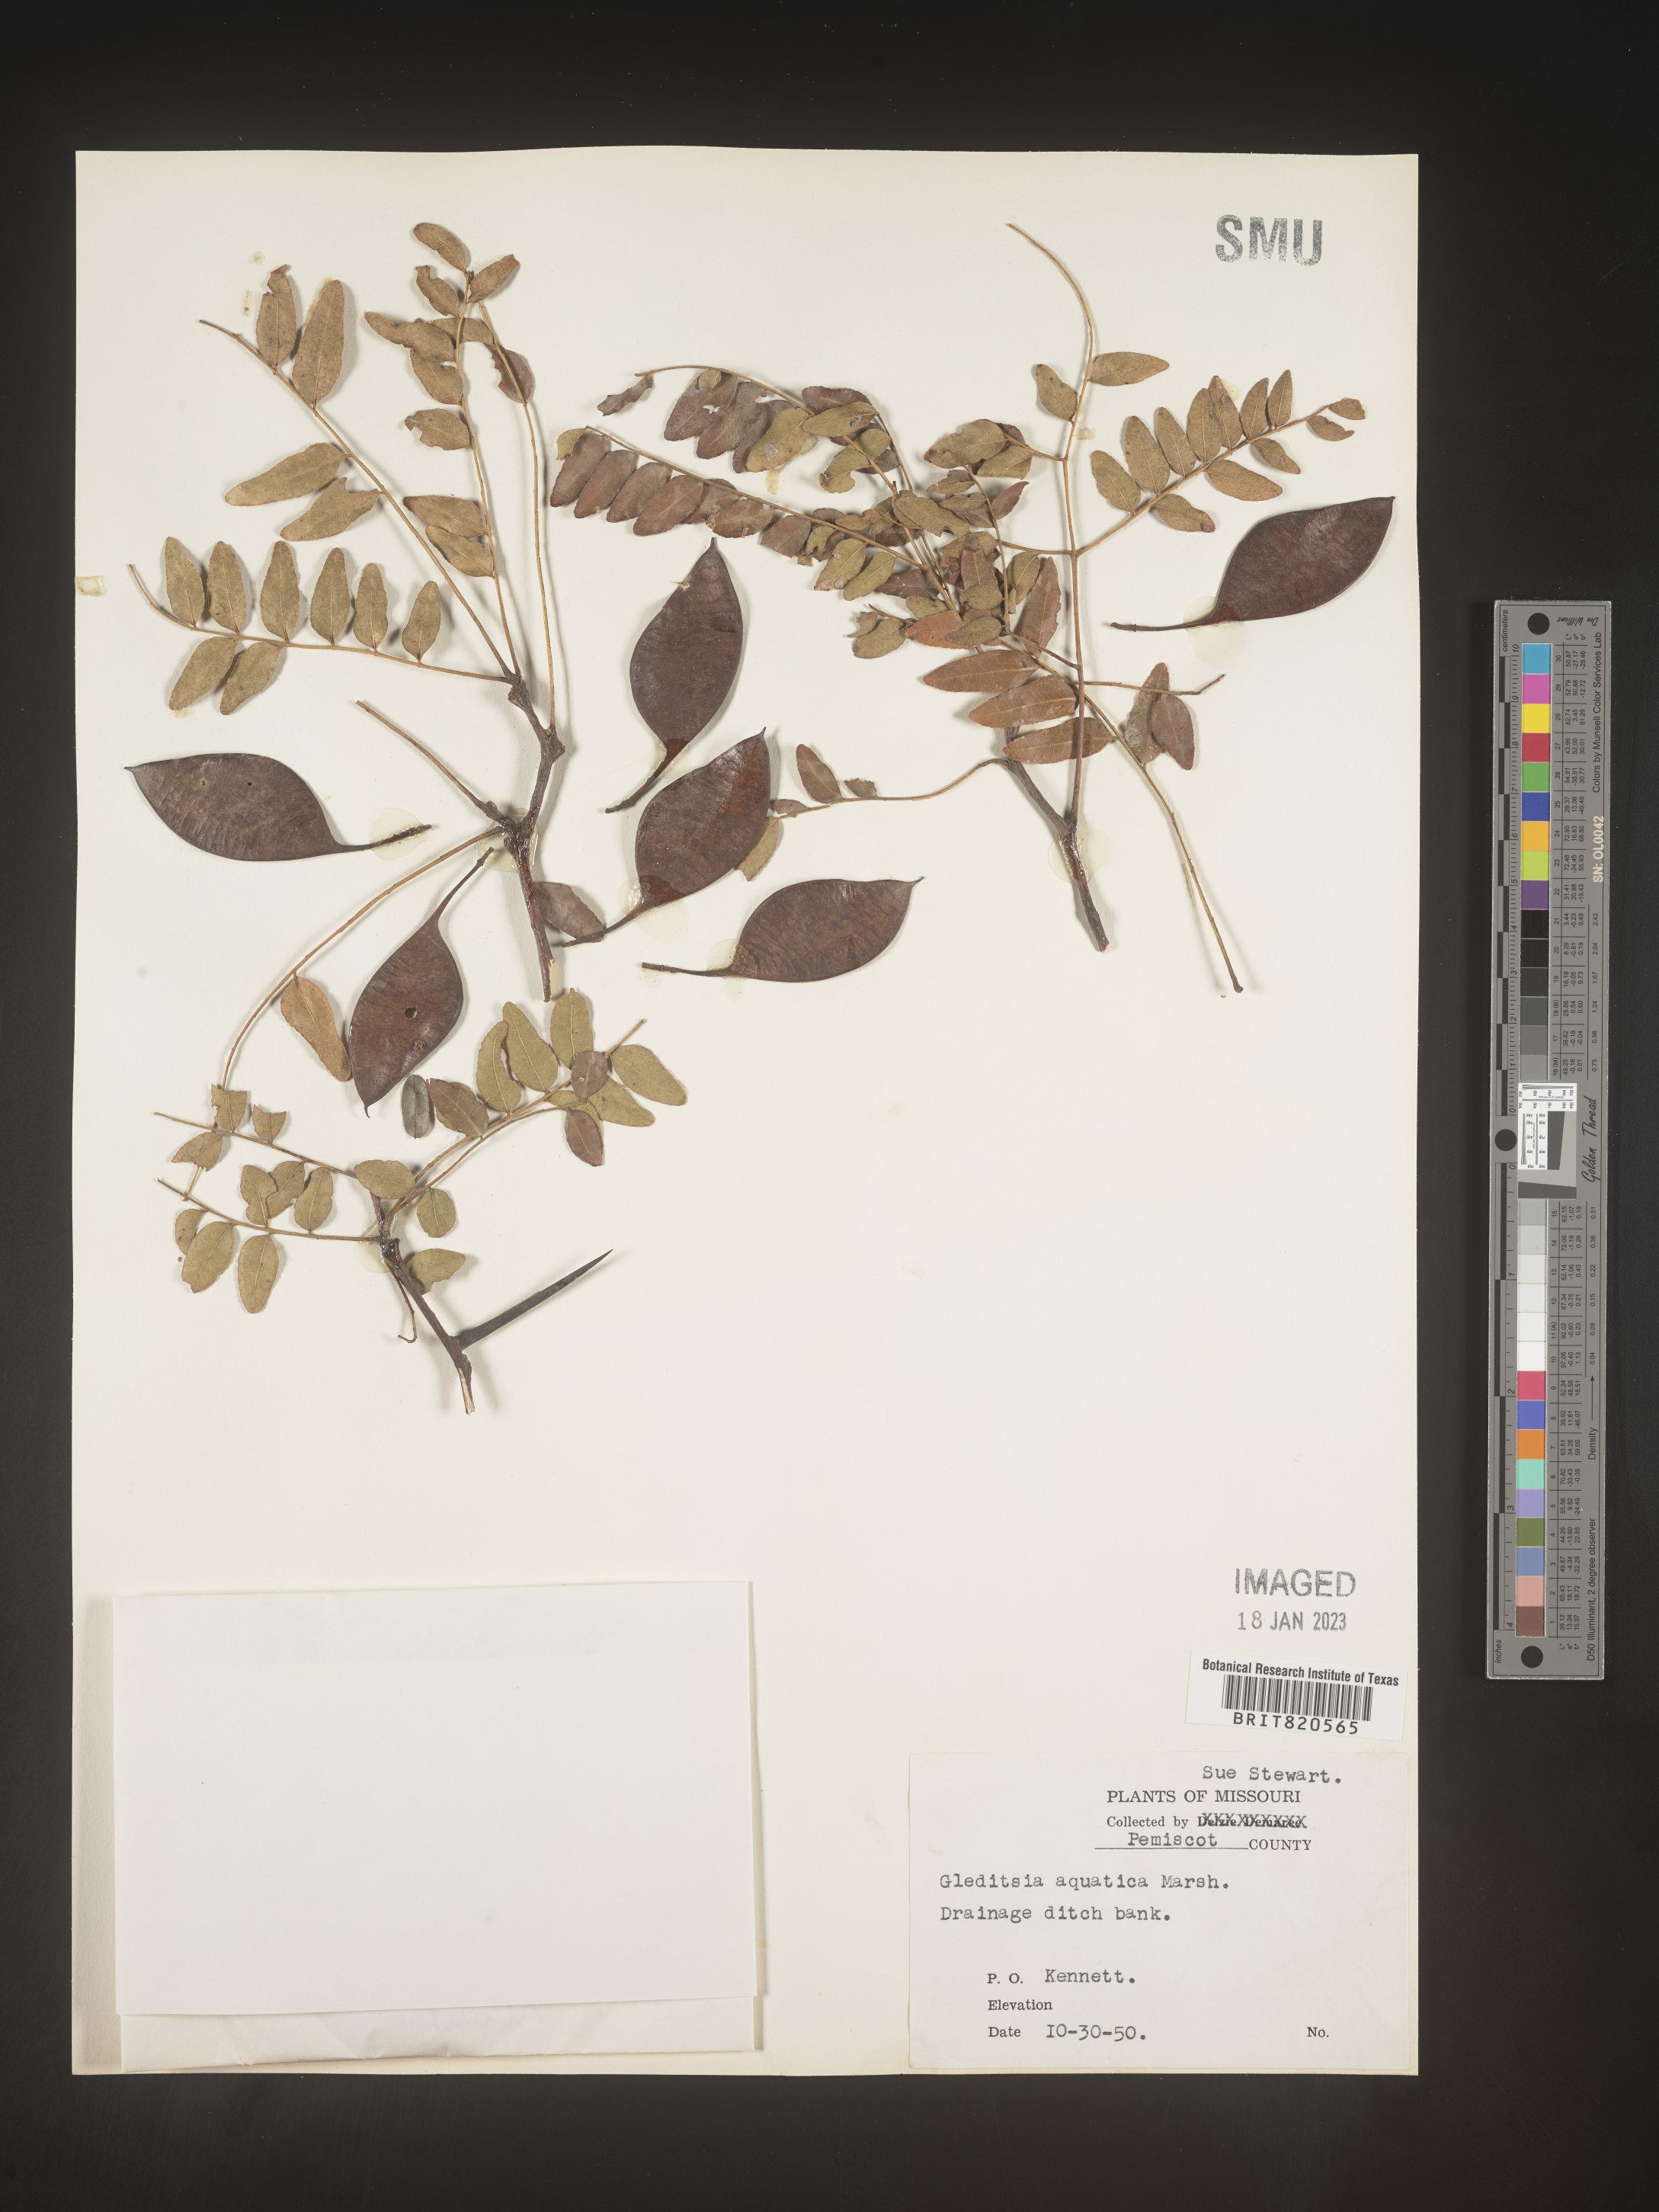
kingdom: Plantae
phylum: Tracheophyta
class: Magnoliopsida
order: Fabales
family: Fabaceae
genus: Gleditsia
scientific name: Gleditsia aquatica
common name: Swamp-locust
